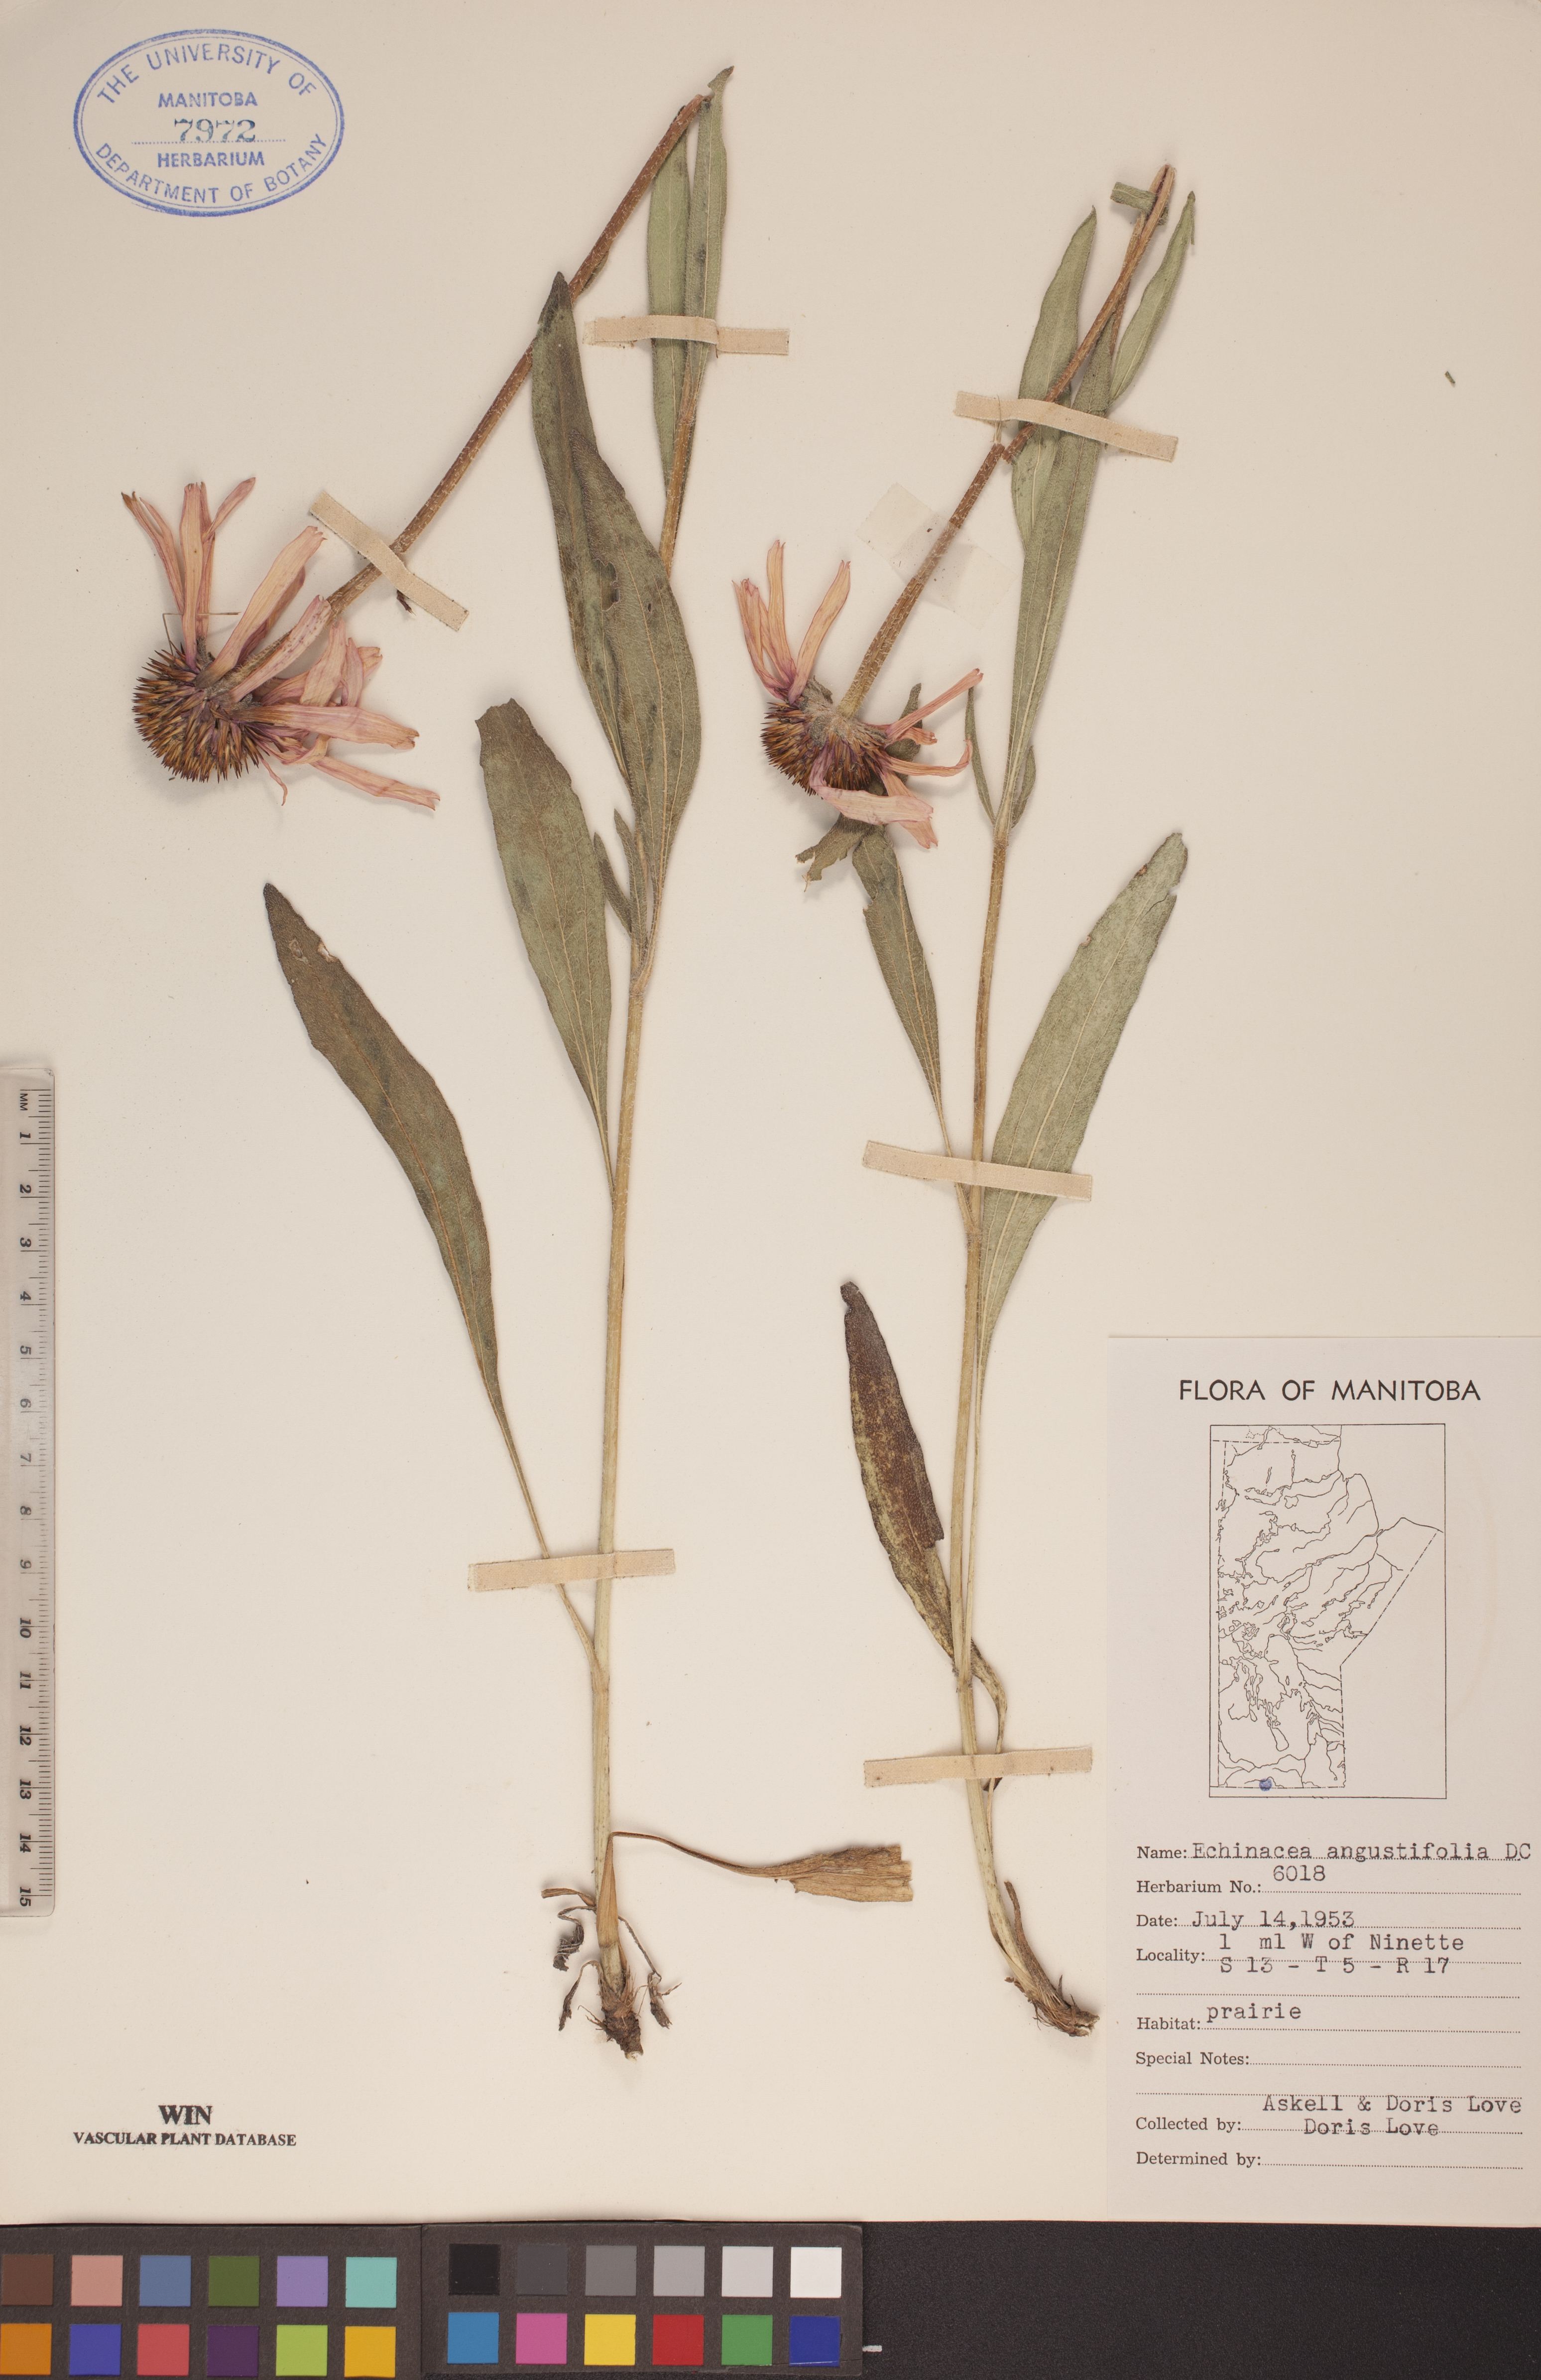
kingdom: Plantae
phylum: Tracheophyta
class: Magnoliopsida
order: Asterales
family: Asteraceae
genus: Echinacea
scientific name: Echinacea angustifolia
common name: Black-sampson echinacea
